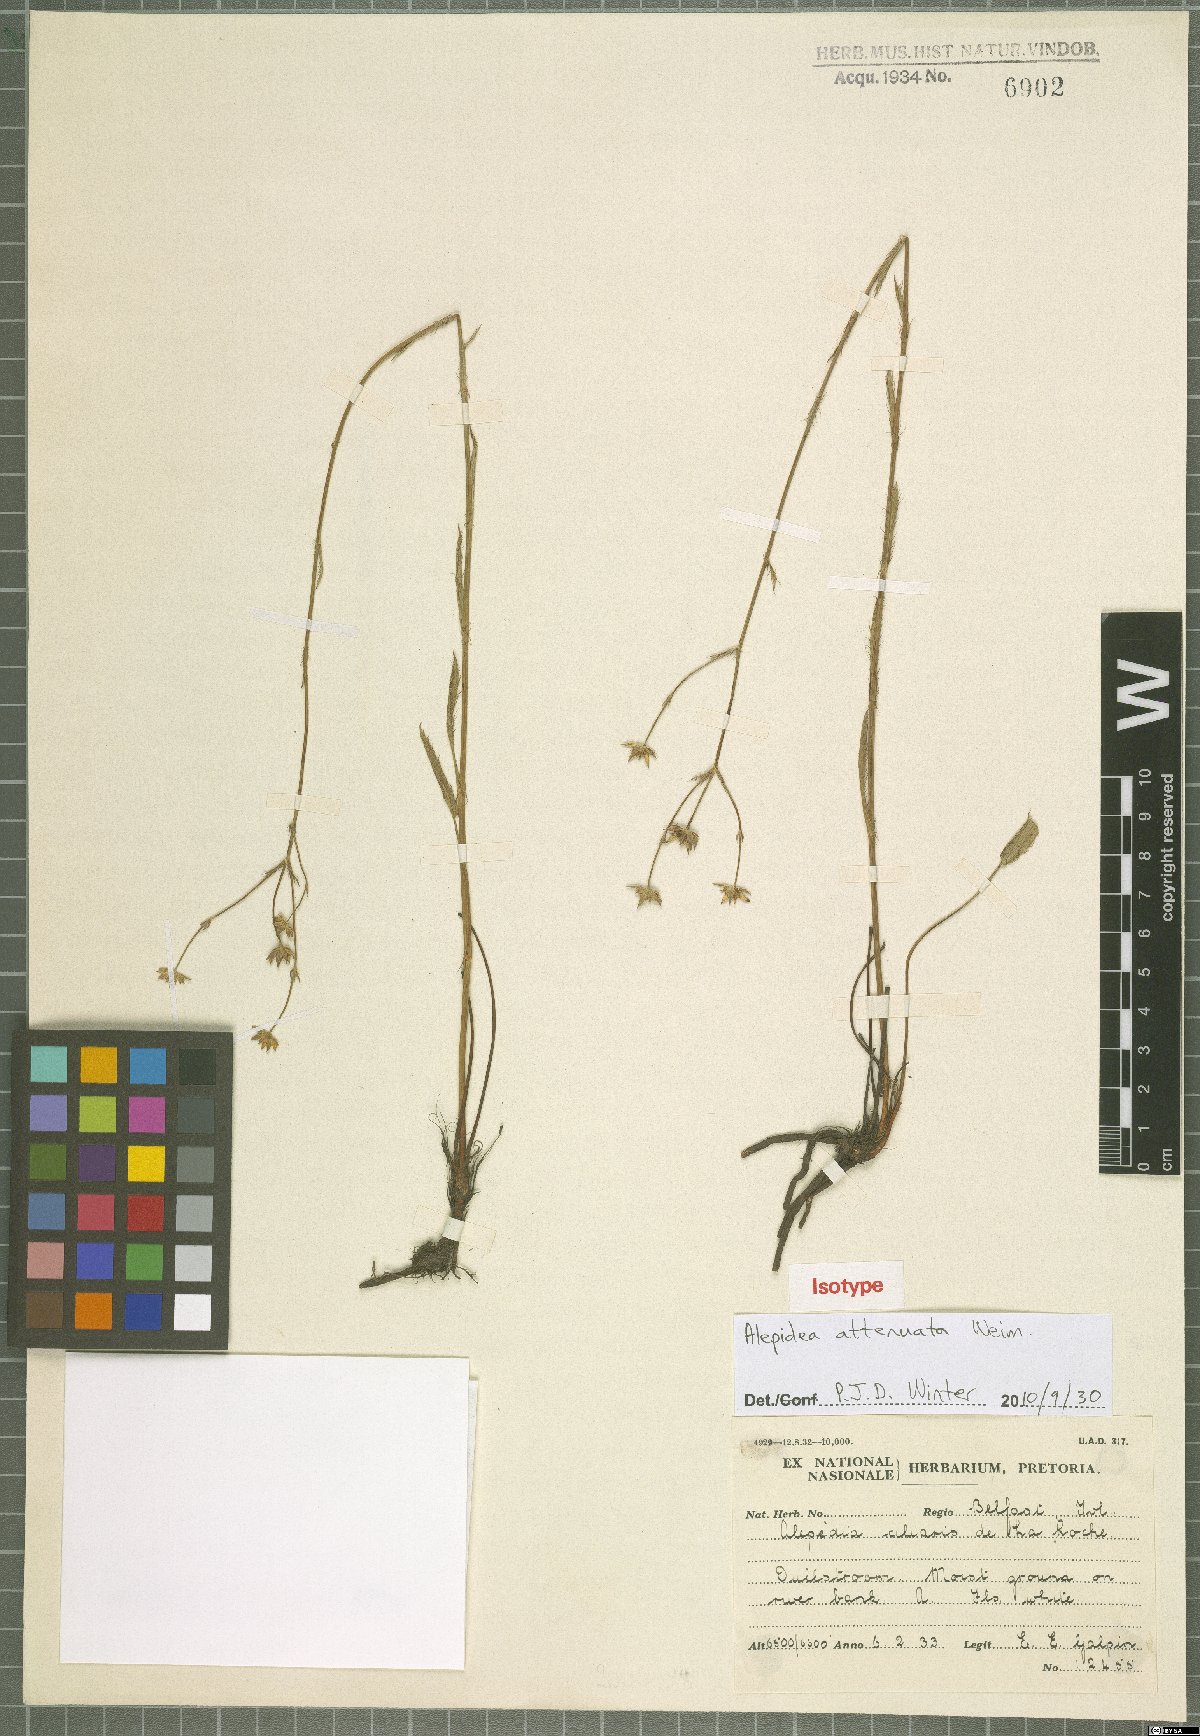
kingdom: Plantae
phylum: Tracheophyta
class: Magnoliopsida
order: Apiales
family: Apiaceae
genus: Alepidea
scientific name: Alepidea attenuata
